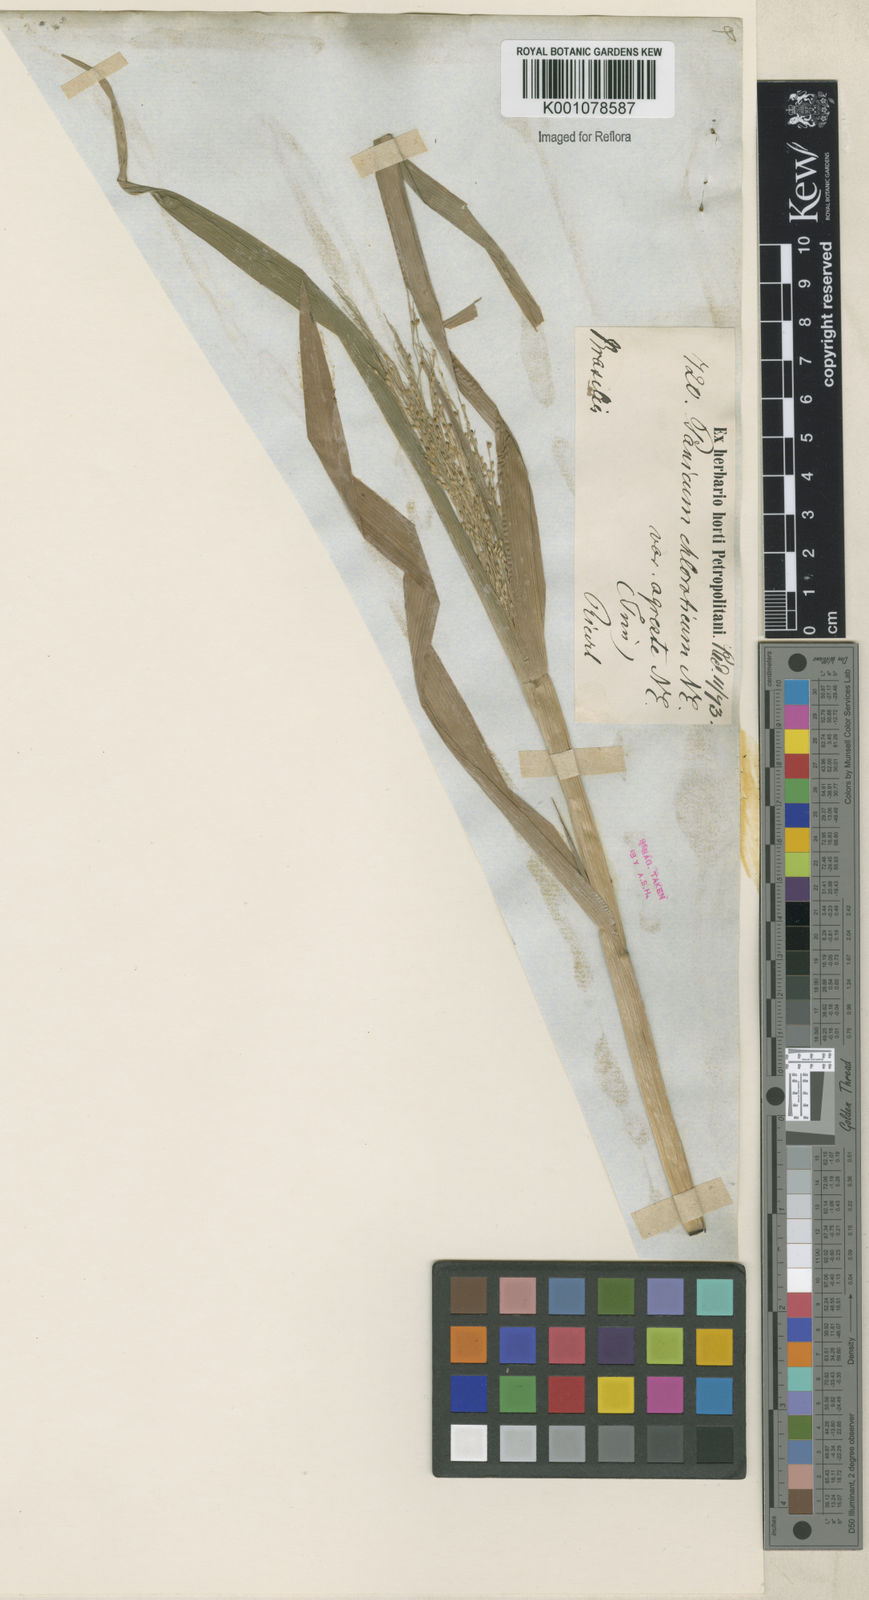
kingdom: Plantae
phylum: Tracheophyta
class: Liliopsida
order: Poales
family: Poaceae
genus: Panicum
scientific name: Panicum dichotomiflorum
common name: Autumn millet
